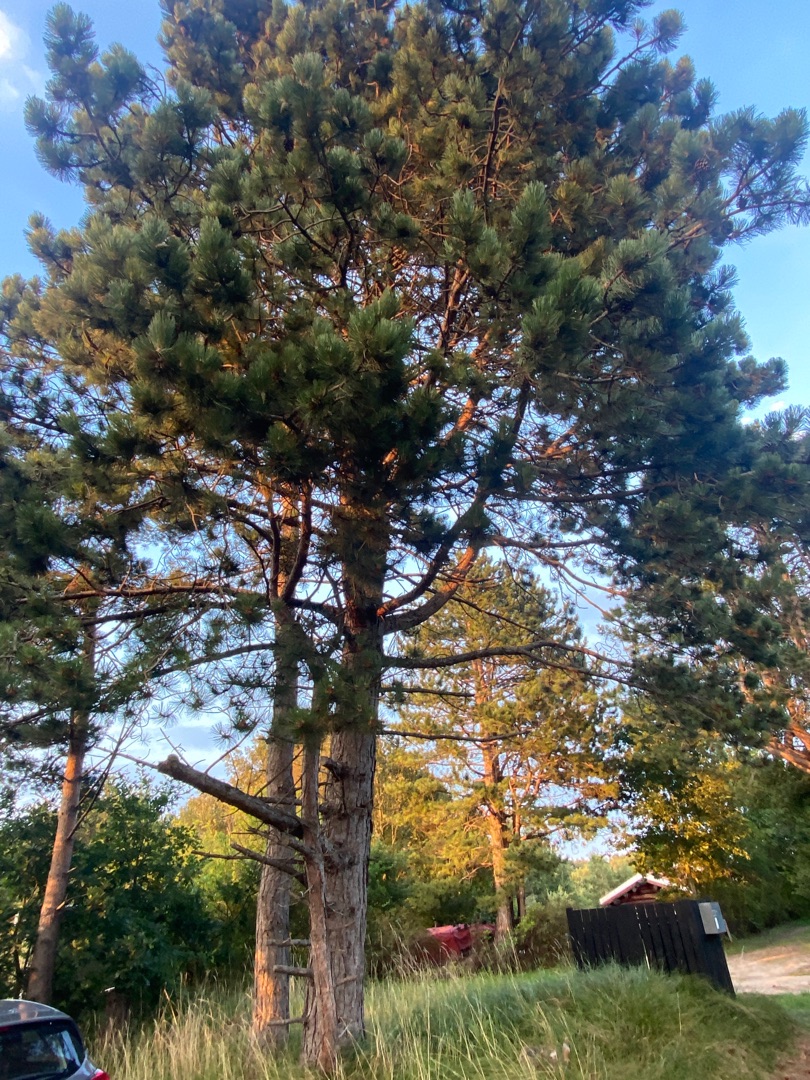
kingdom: Plantae
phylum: Tracheophyta
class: Pinopsida
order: Pinales
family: Pinaceae
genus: Pinus
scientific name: Pinus nigra
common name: Østrigsk fyr
